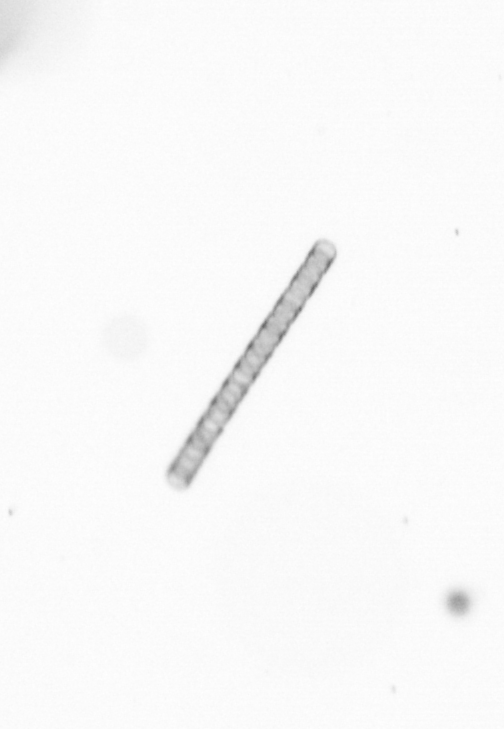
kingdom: Chromista
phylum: Ochrophyta
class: Bacillariophyceae
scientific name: Bacillariophyceae
